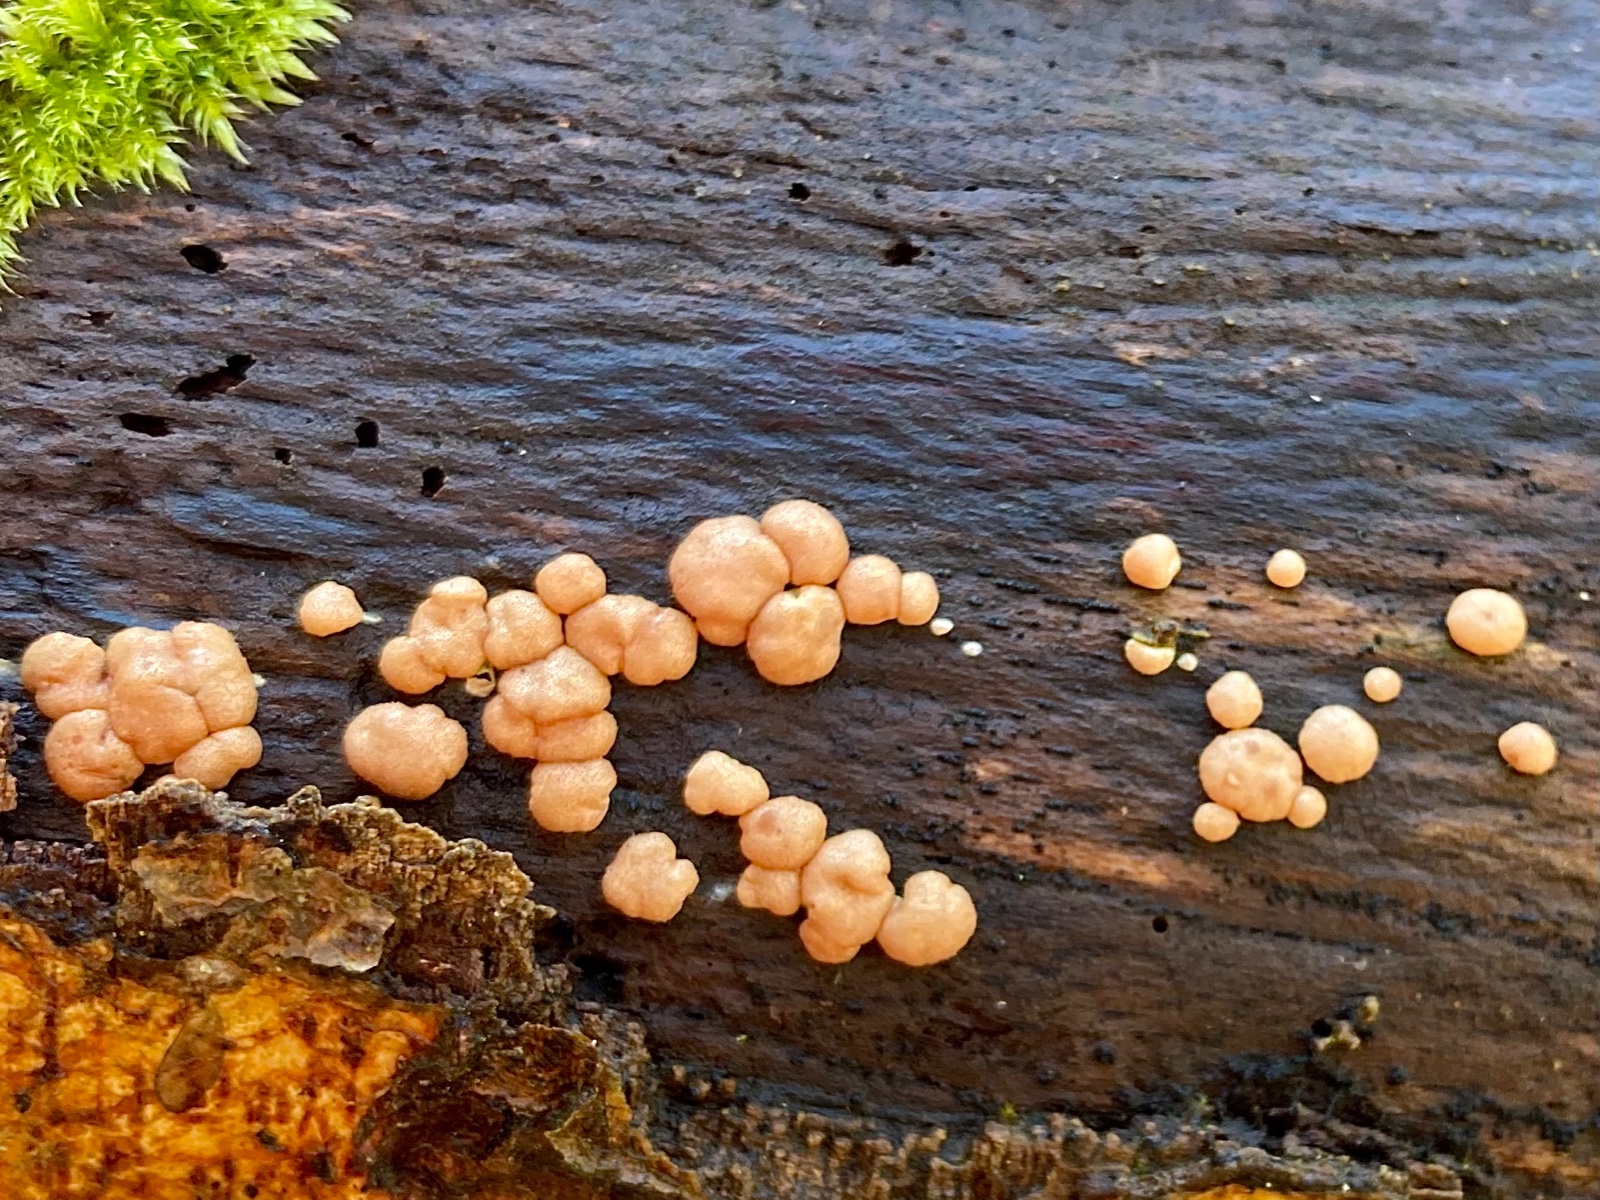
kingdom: Fungi
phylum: Ascomycota
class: Sordariomycetes
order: Hypocreales
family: Hypocreaceae
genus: Trichoderma
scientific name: Trichoderma europaeum
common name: rosabrun kødkerne
